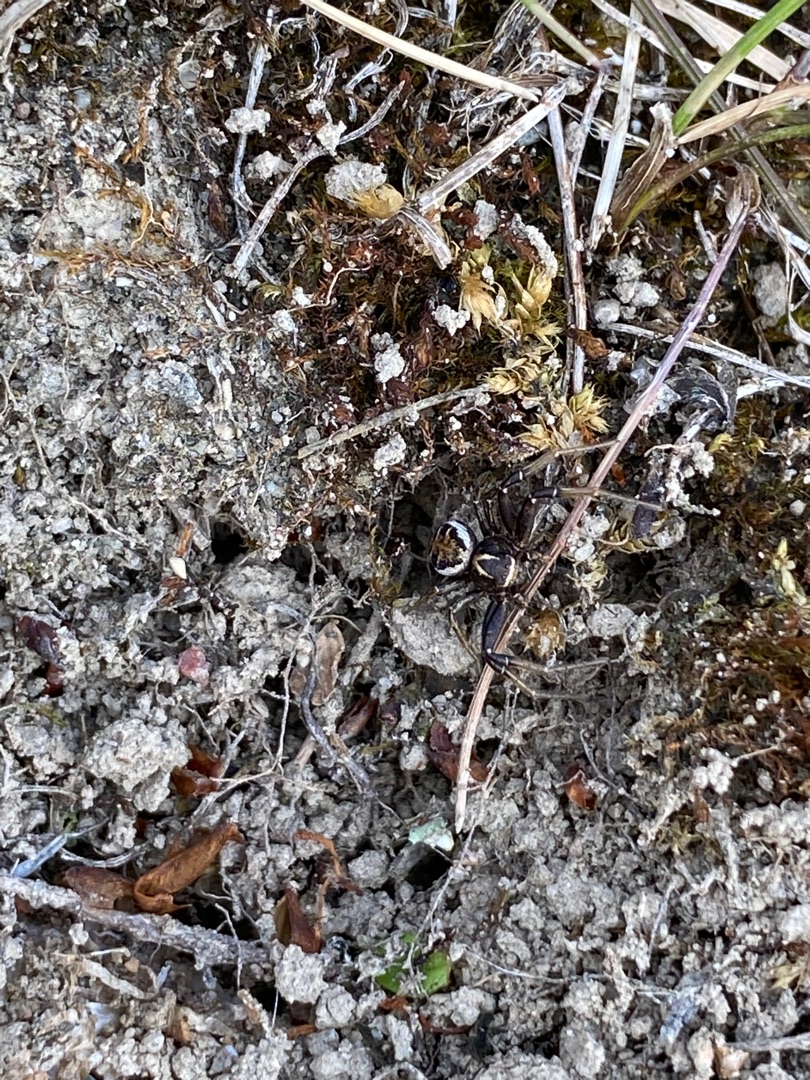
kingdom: Animalia
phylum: Arthropoda
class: Arachnida
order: Araneae
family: Thomisidae
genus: Xysticus
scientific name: Xysticus
